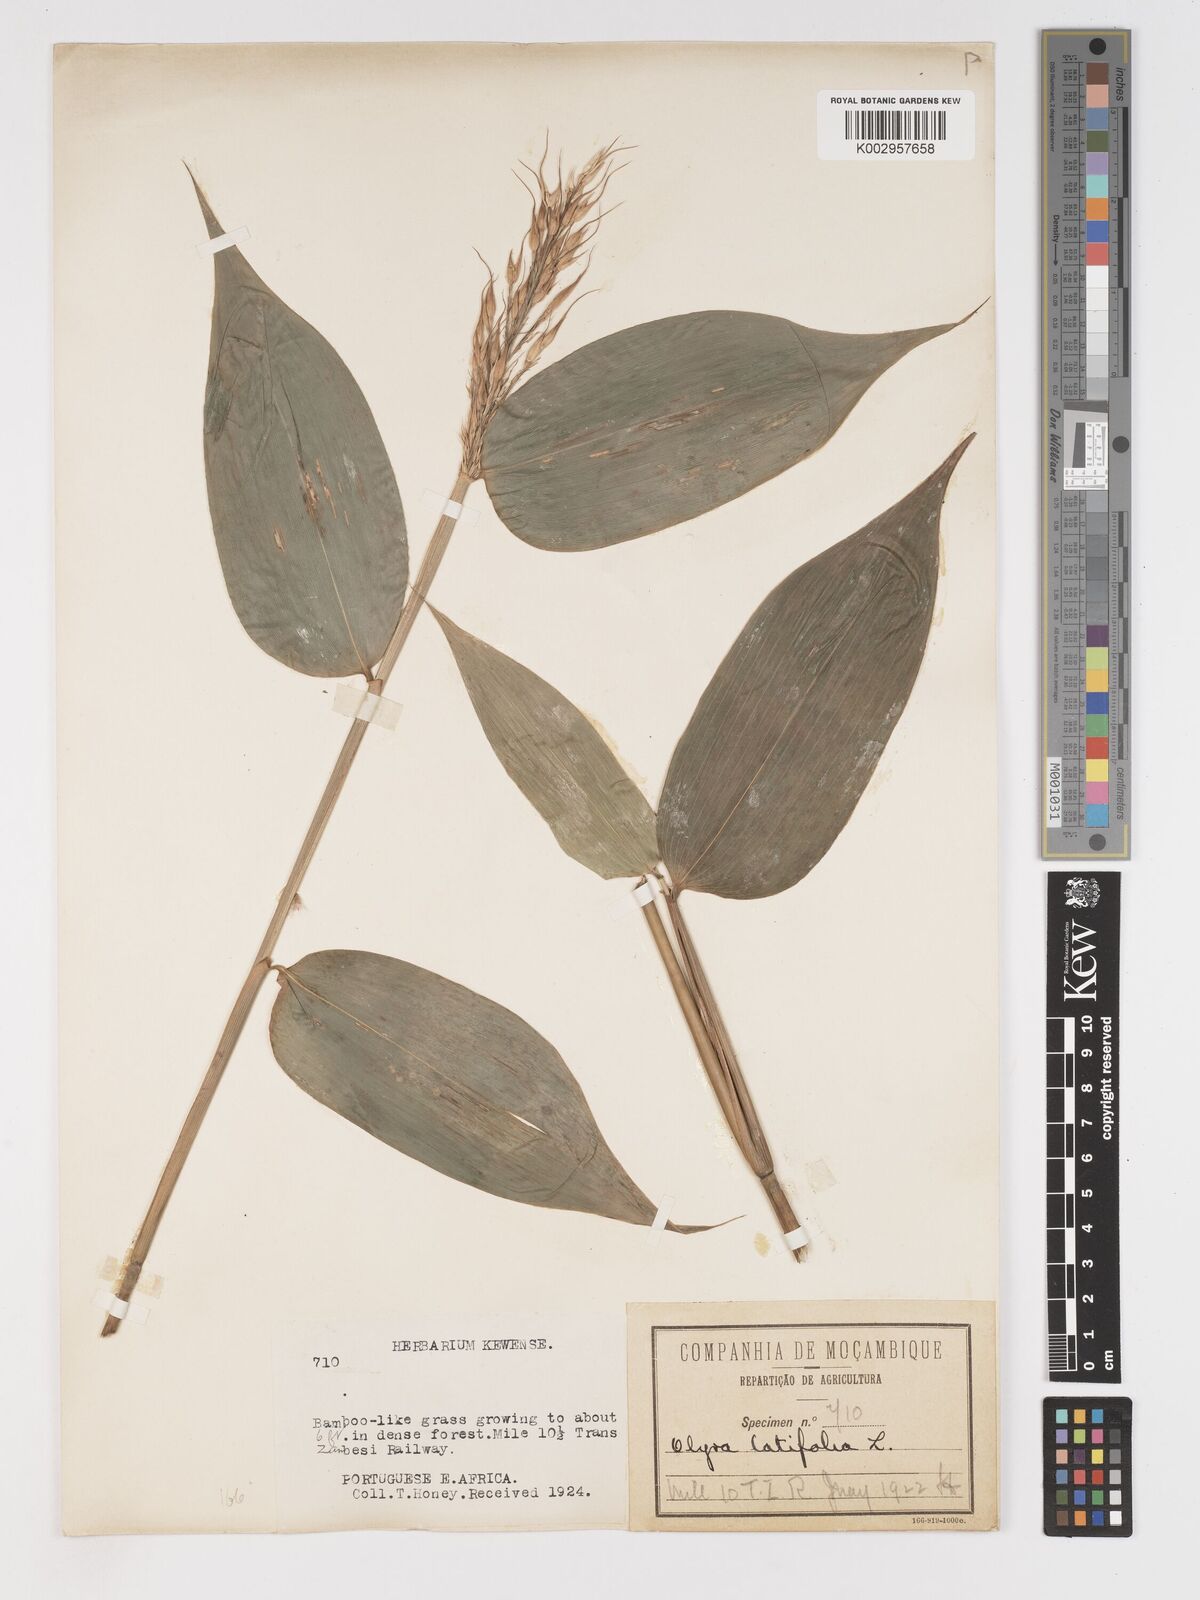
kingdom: Plantae
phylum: Tracheophyta
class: Liliopsida
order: Poales
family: Poaceae
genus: Olyra
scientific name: Olyra latifolia
